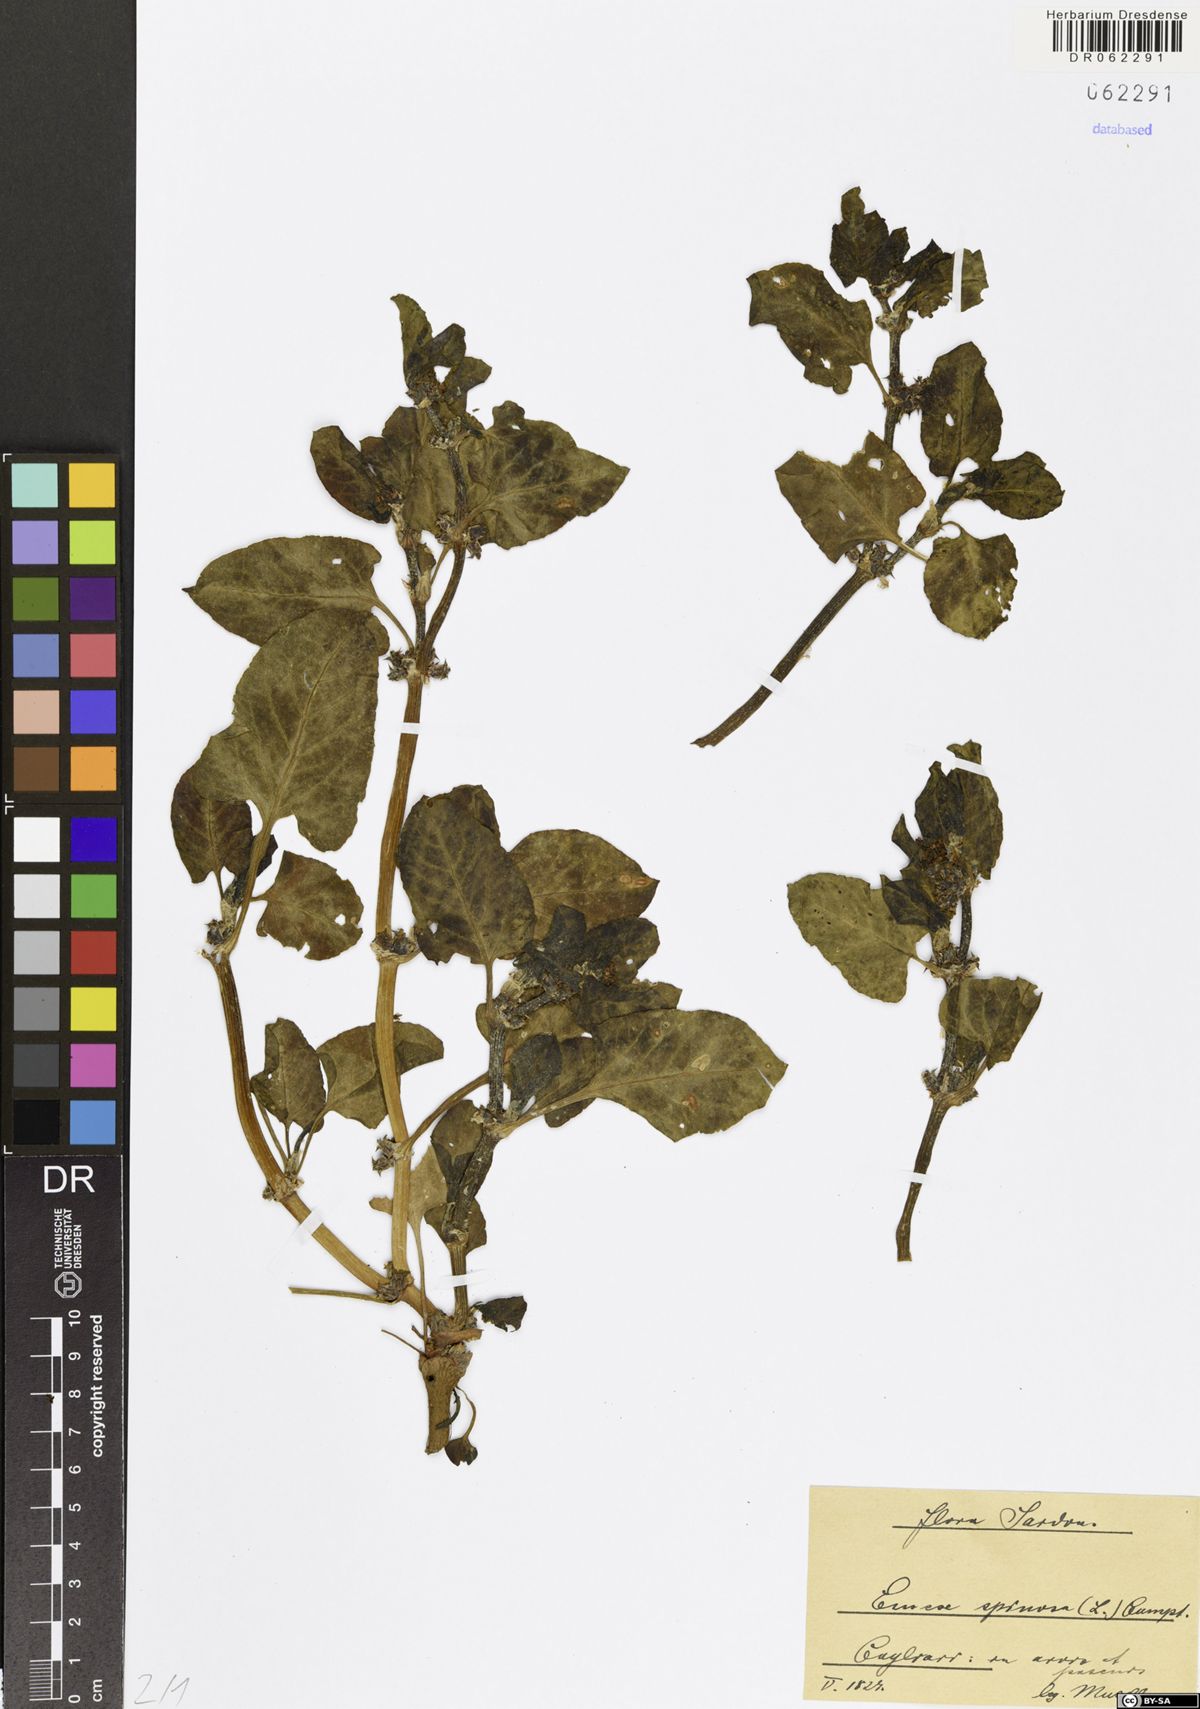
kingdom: Plantae
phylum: Tracheophyta
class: Magnoliopsida
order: Caryophyllales
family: Polygonaceae
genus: Rumex
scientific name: Rumex spinosus
